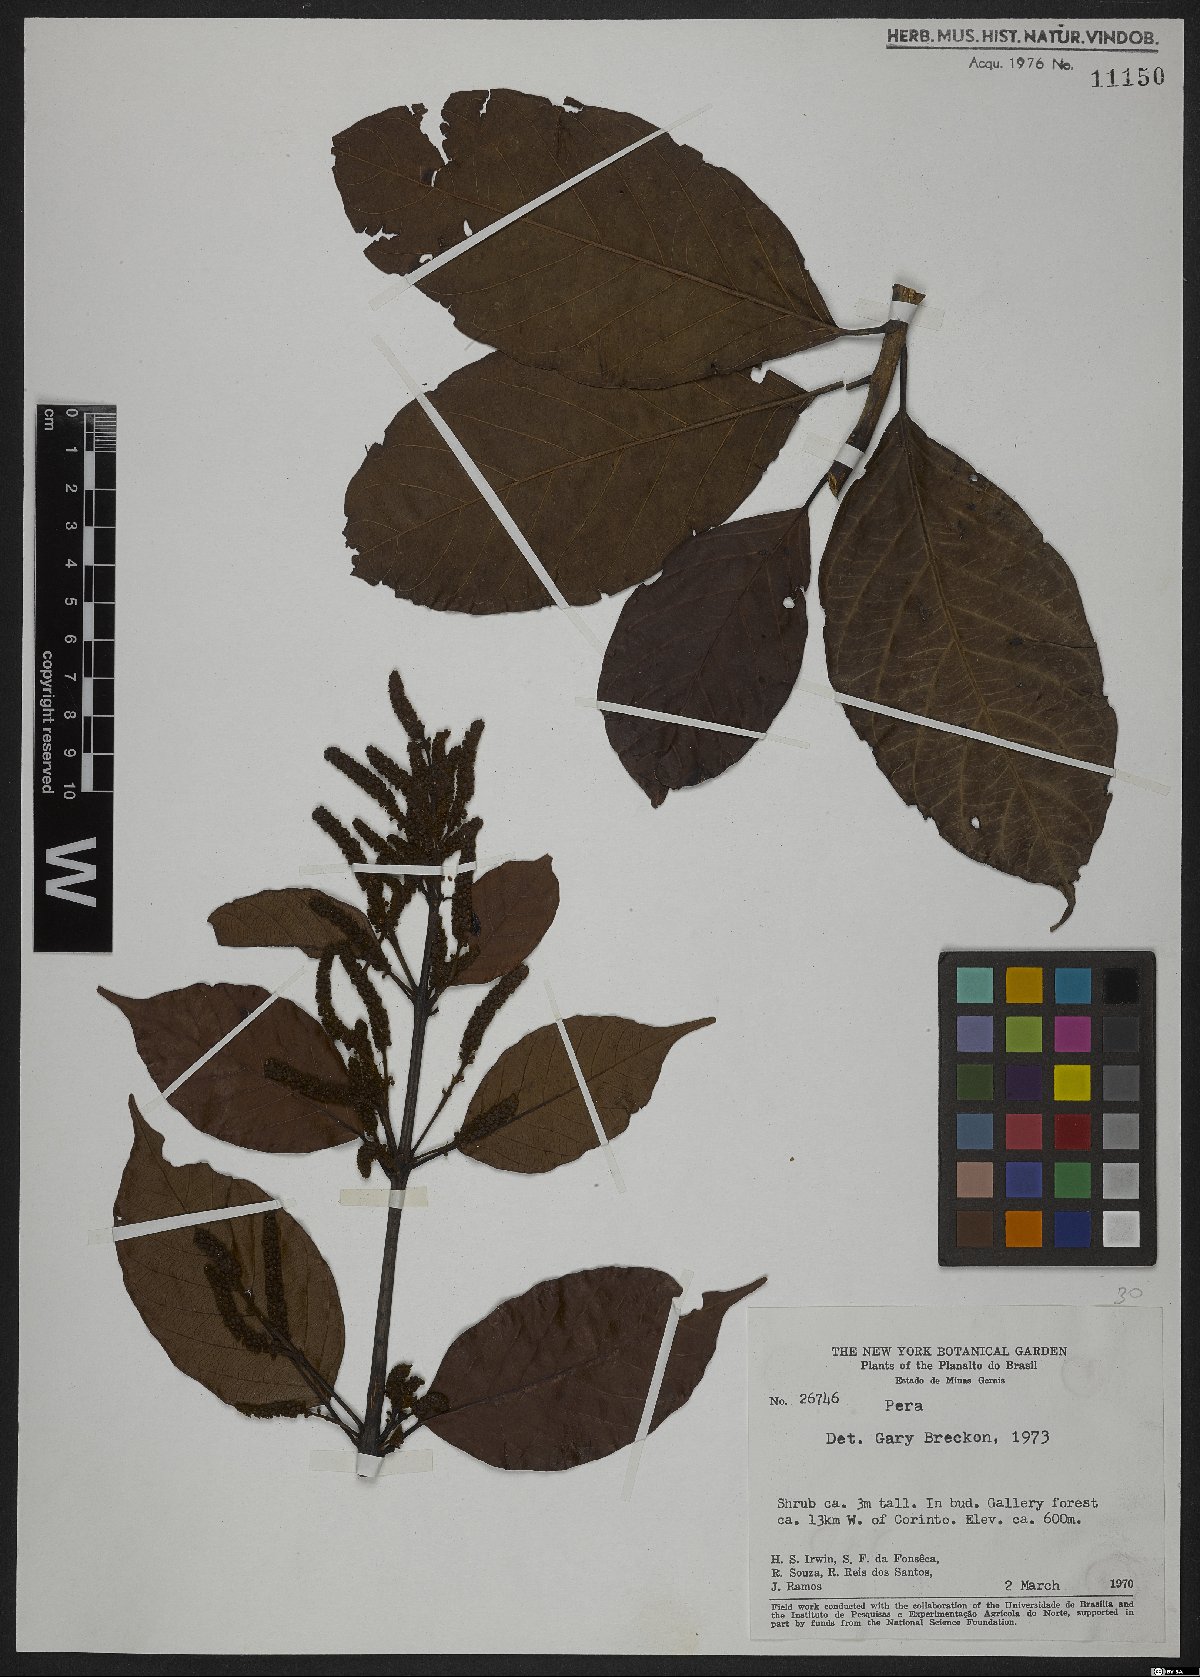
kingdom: Plantae
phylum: Tracheophyta
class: Magnoliopsida
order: Malpighiales
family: Peraceae
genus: Pera
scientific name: Pera
